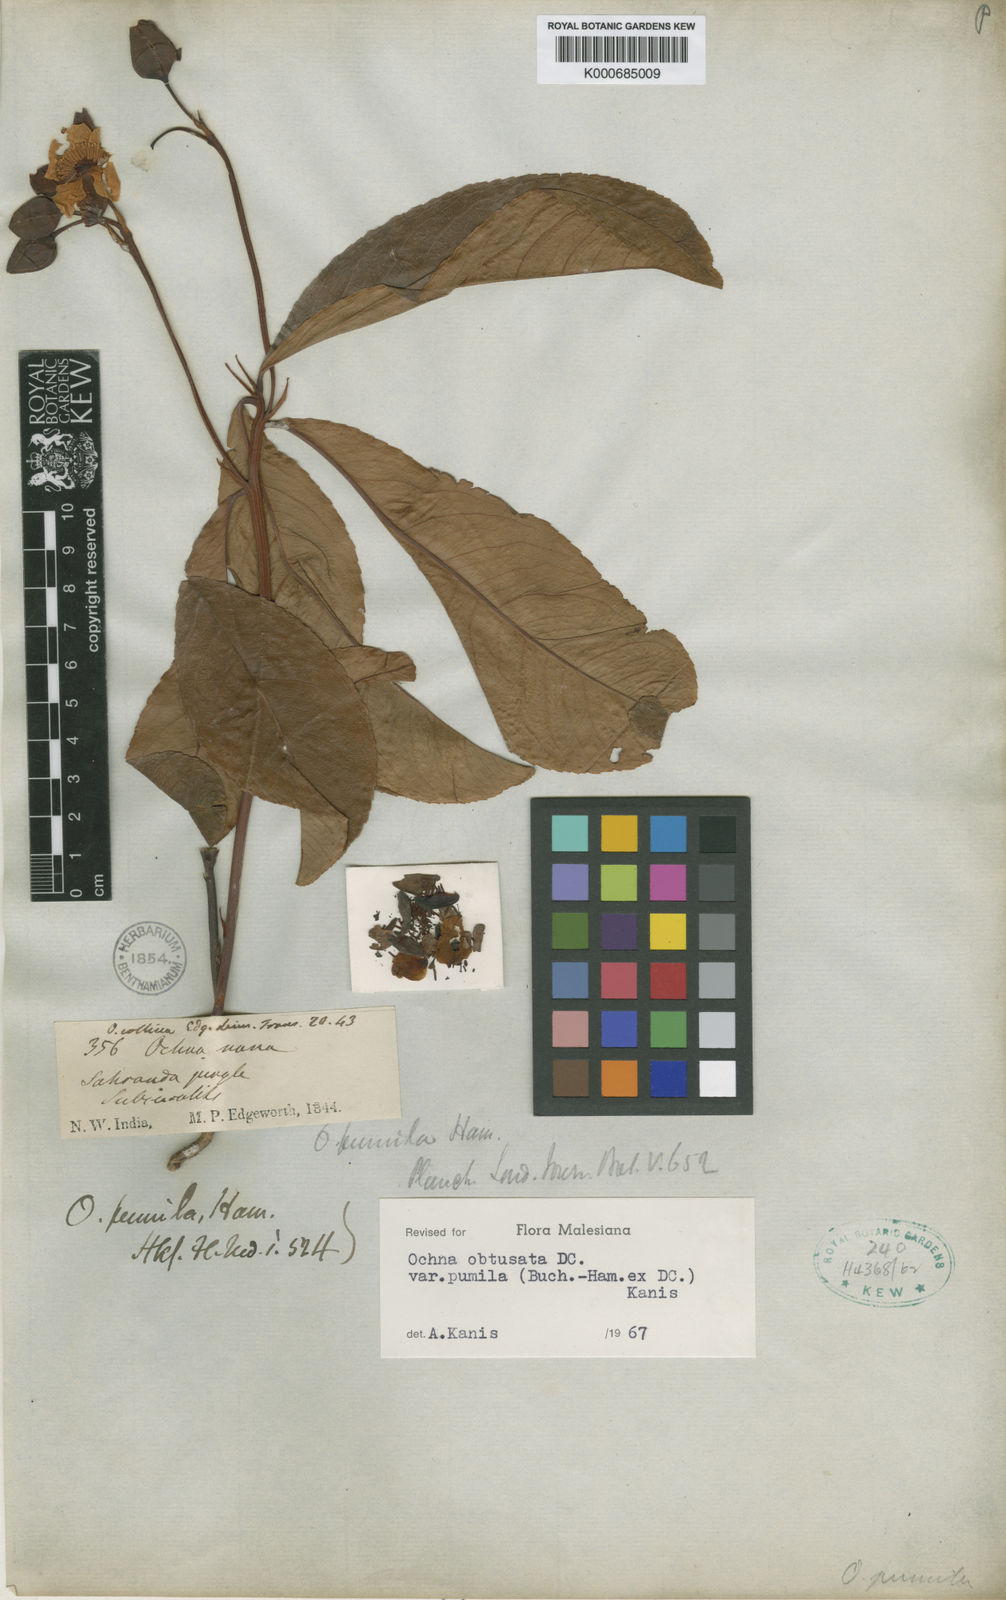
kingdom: Plantae
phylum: Tracheophyta
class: Magnoliopsida
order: Malpighiales
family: Ochnaceae
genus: Ochna
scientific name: Ochna obtusata
